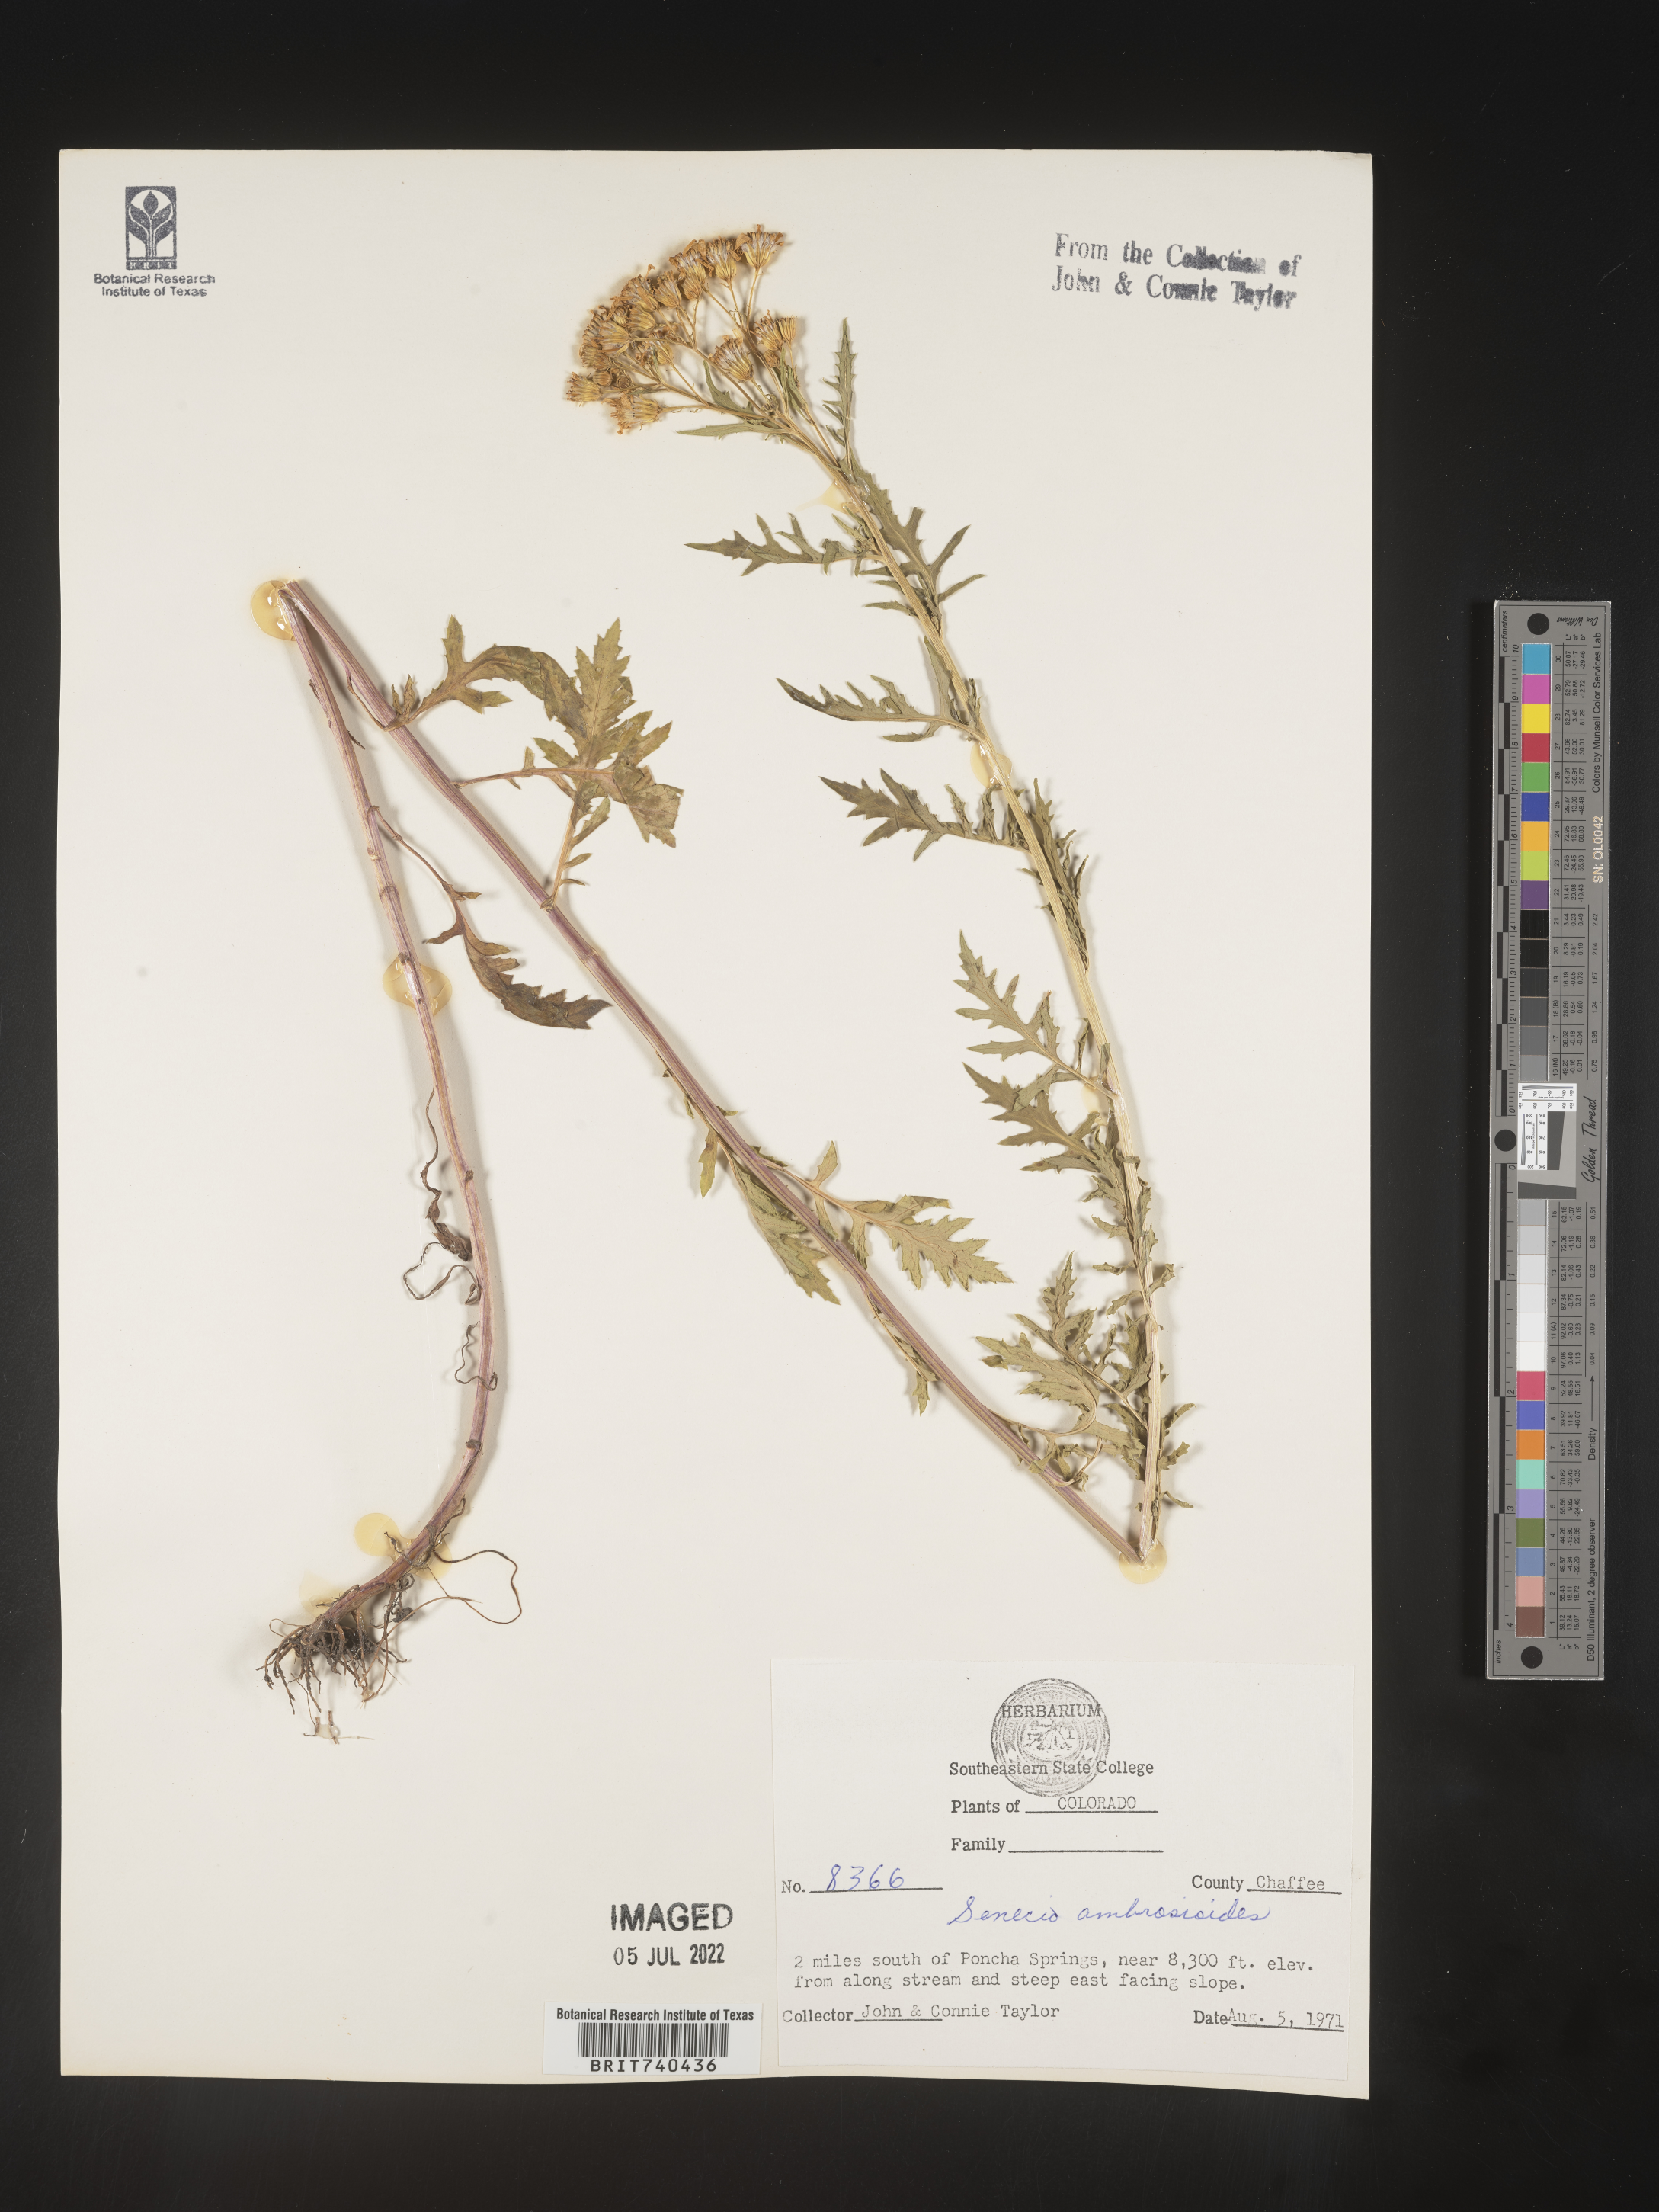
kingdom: Plantae
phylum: Tracheophyta
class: Magnoliopsida
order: Asterales
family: Asteraceae
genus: Senecio
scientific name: Senecio eremophilus
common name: Desert ragwort
